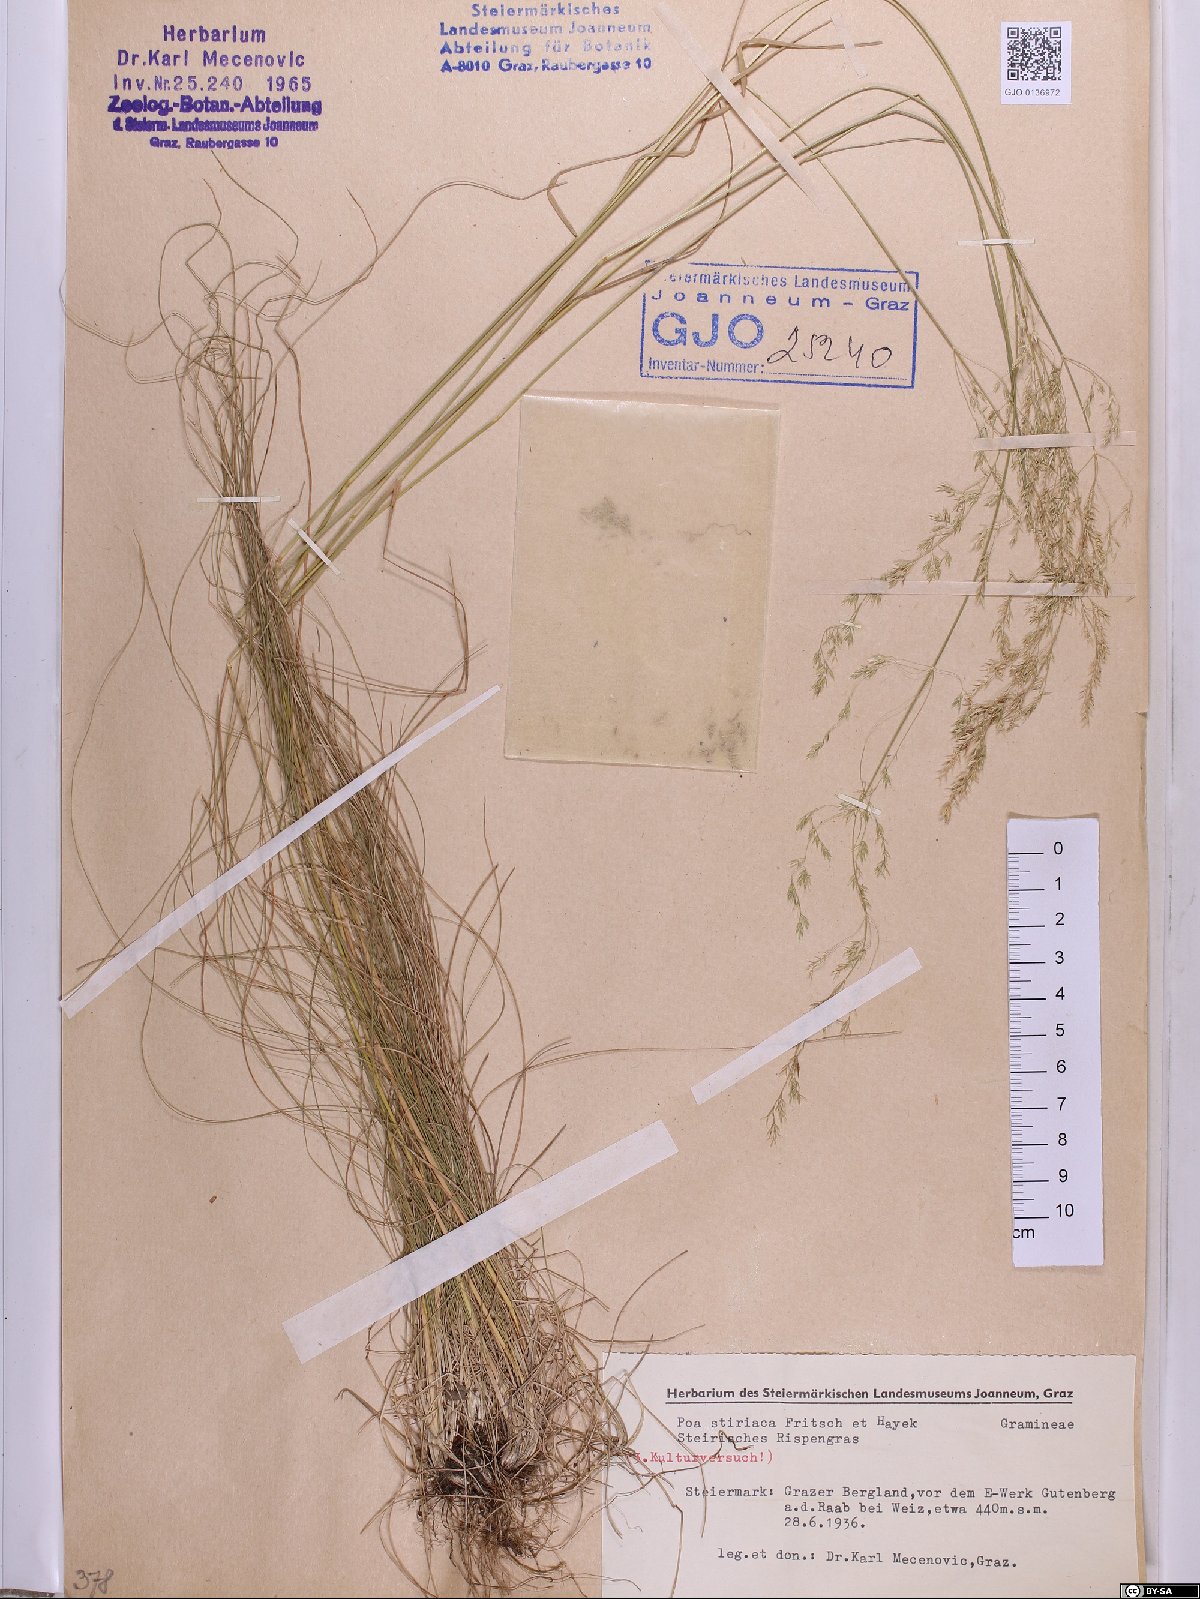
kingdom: Plantae
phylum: Tracheophyta
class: Liliopsida
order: Poales
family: Poaceae
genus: Poa
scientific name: Poa stiriaca
